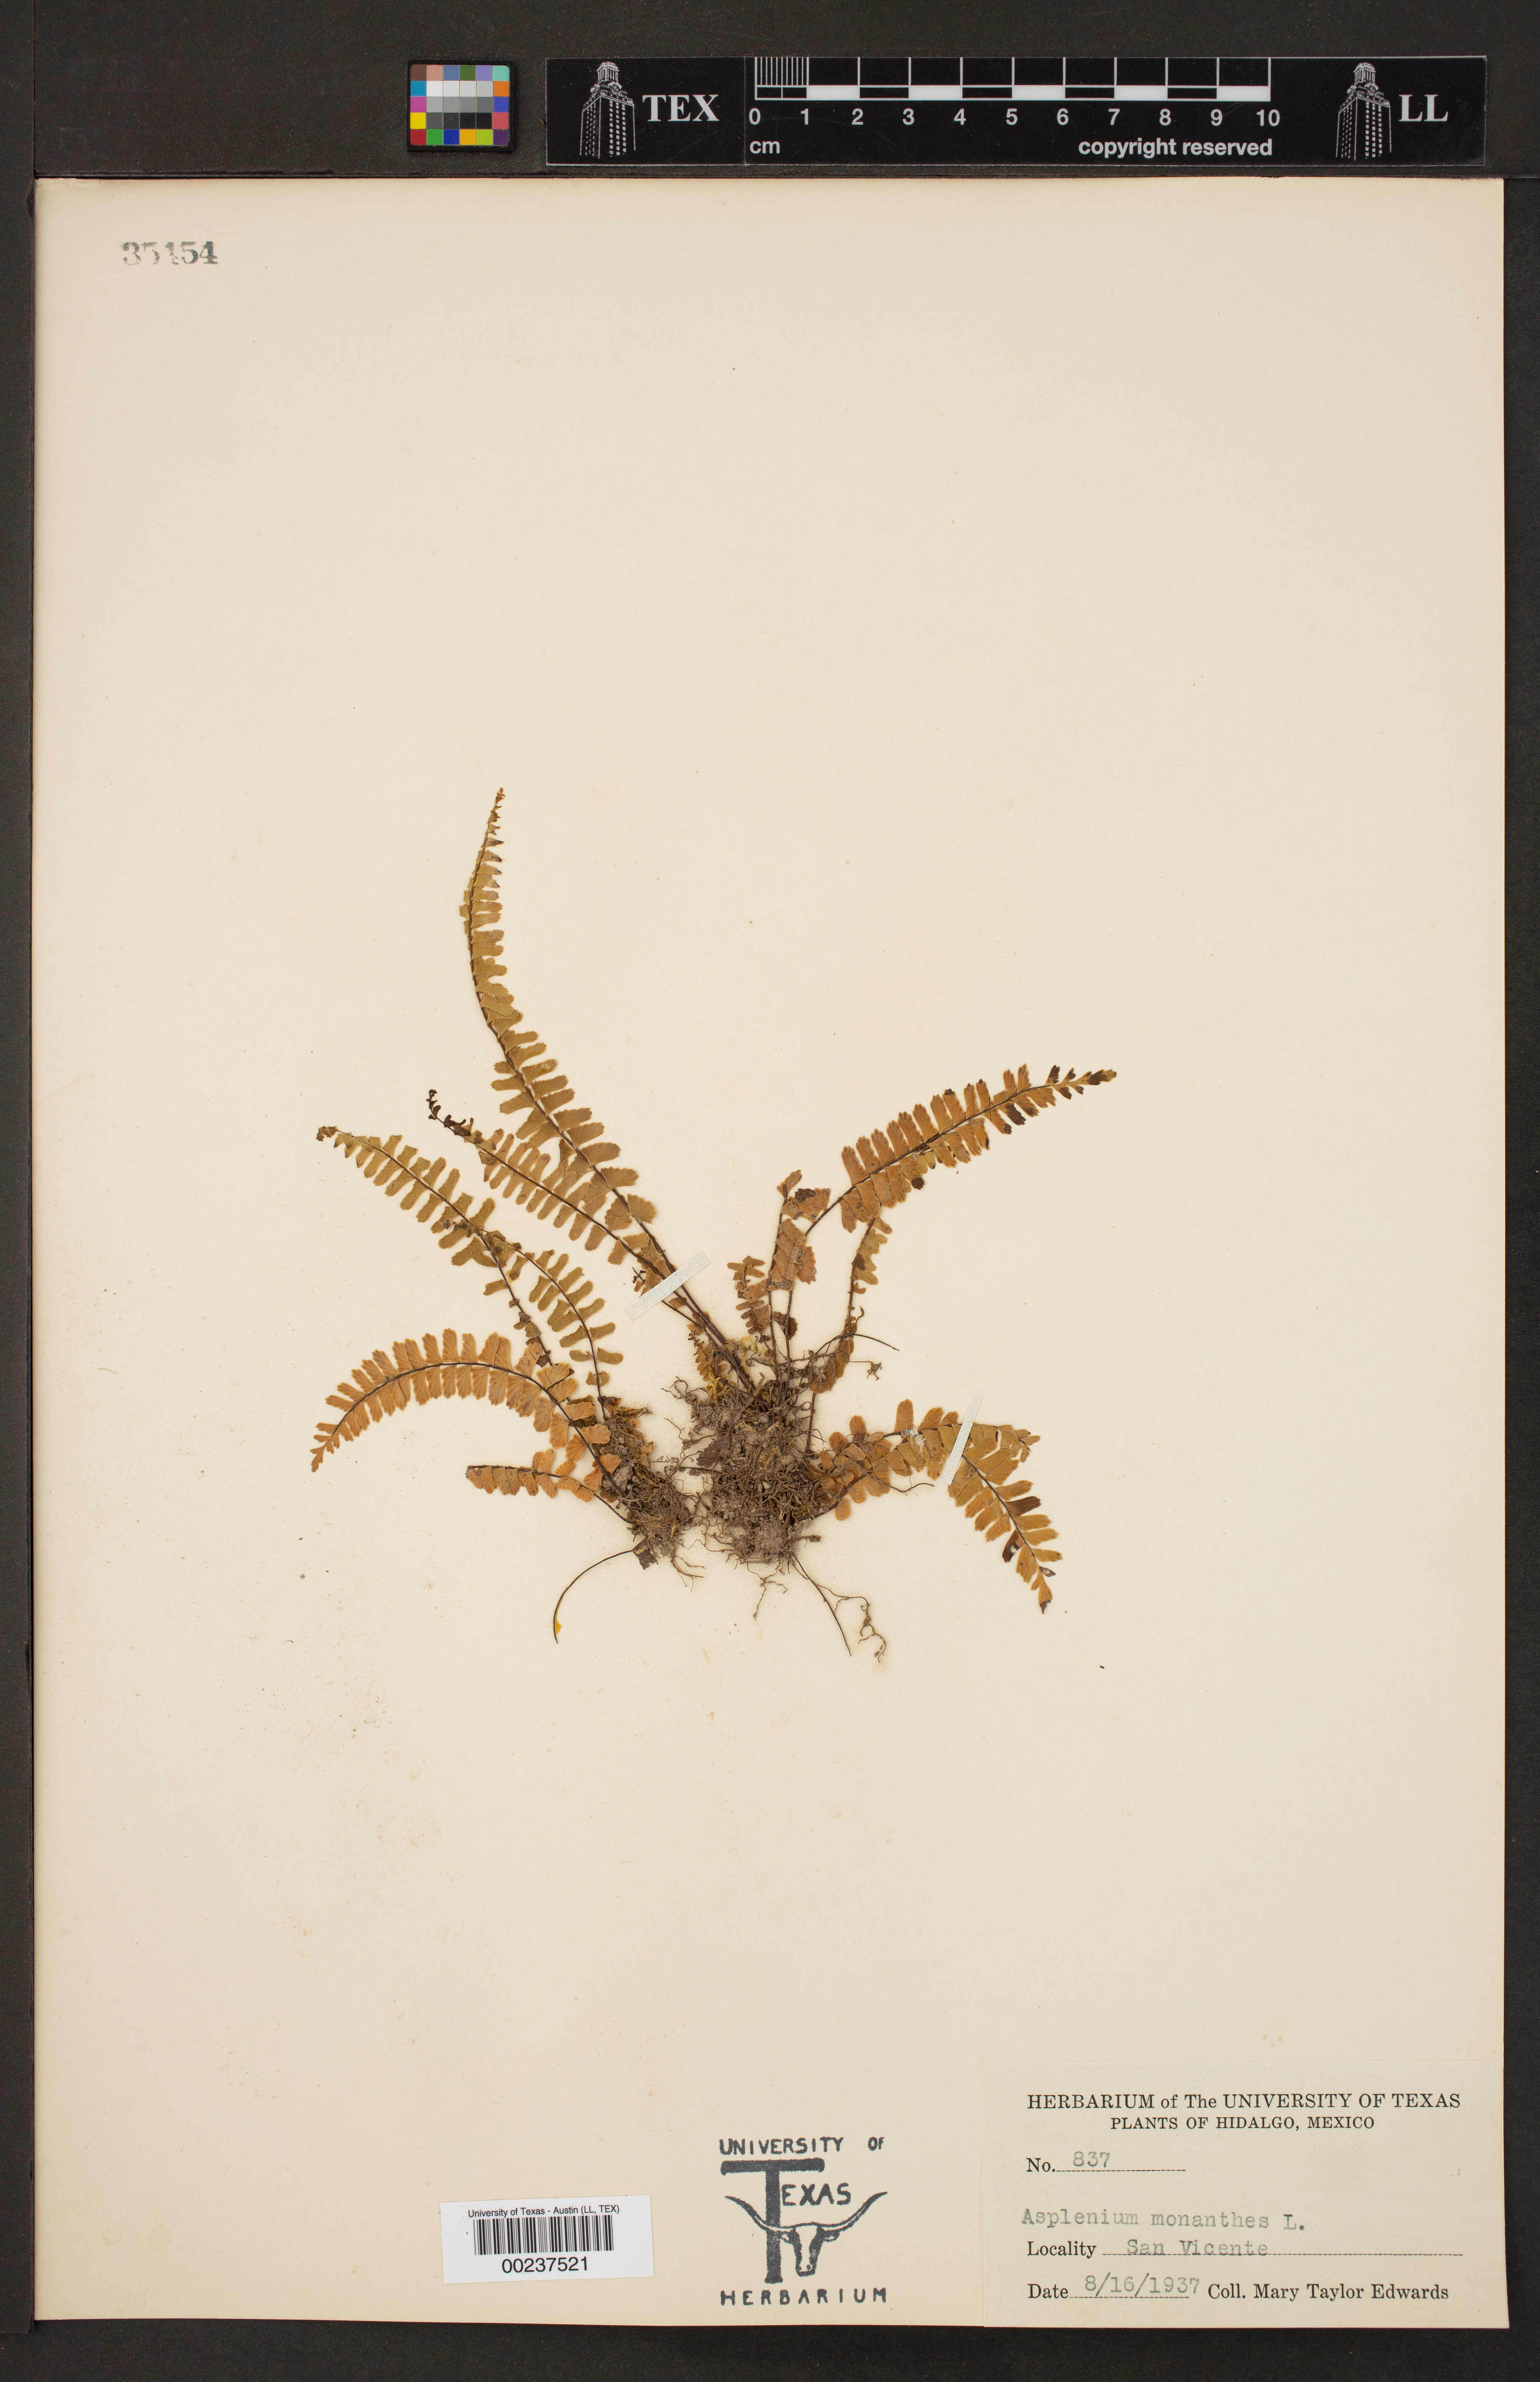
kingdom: Plantae
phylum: Tracheophyta
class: Polypodiopsida
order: Polypodiales
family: Aspleniaceae
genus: Asplenium
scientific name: Asplenium monanthes
